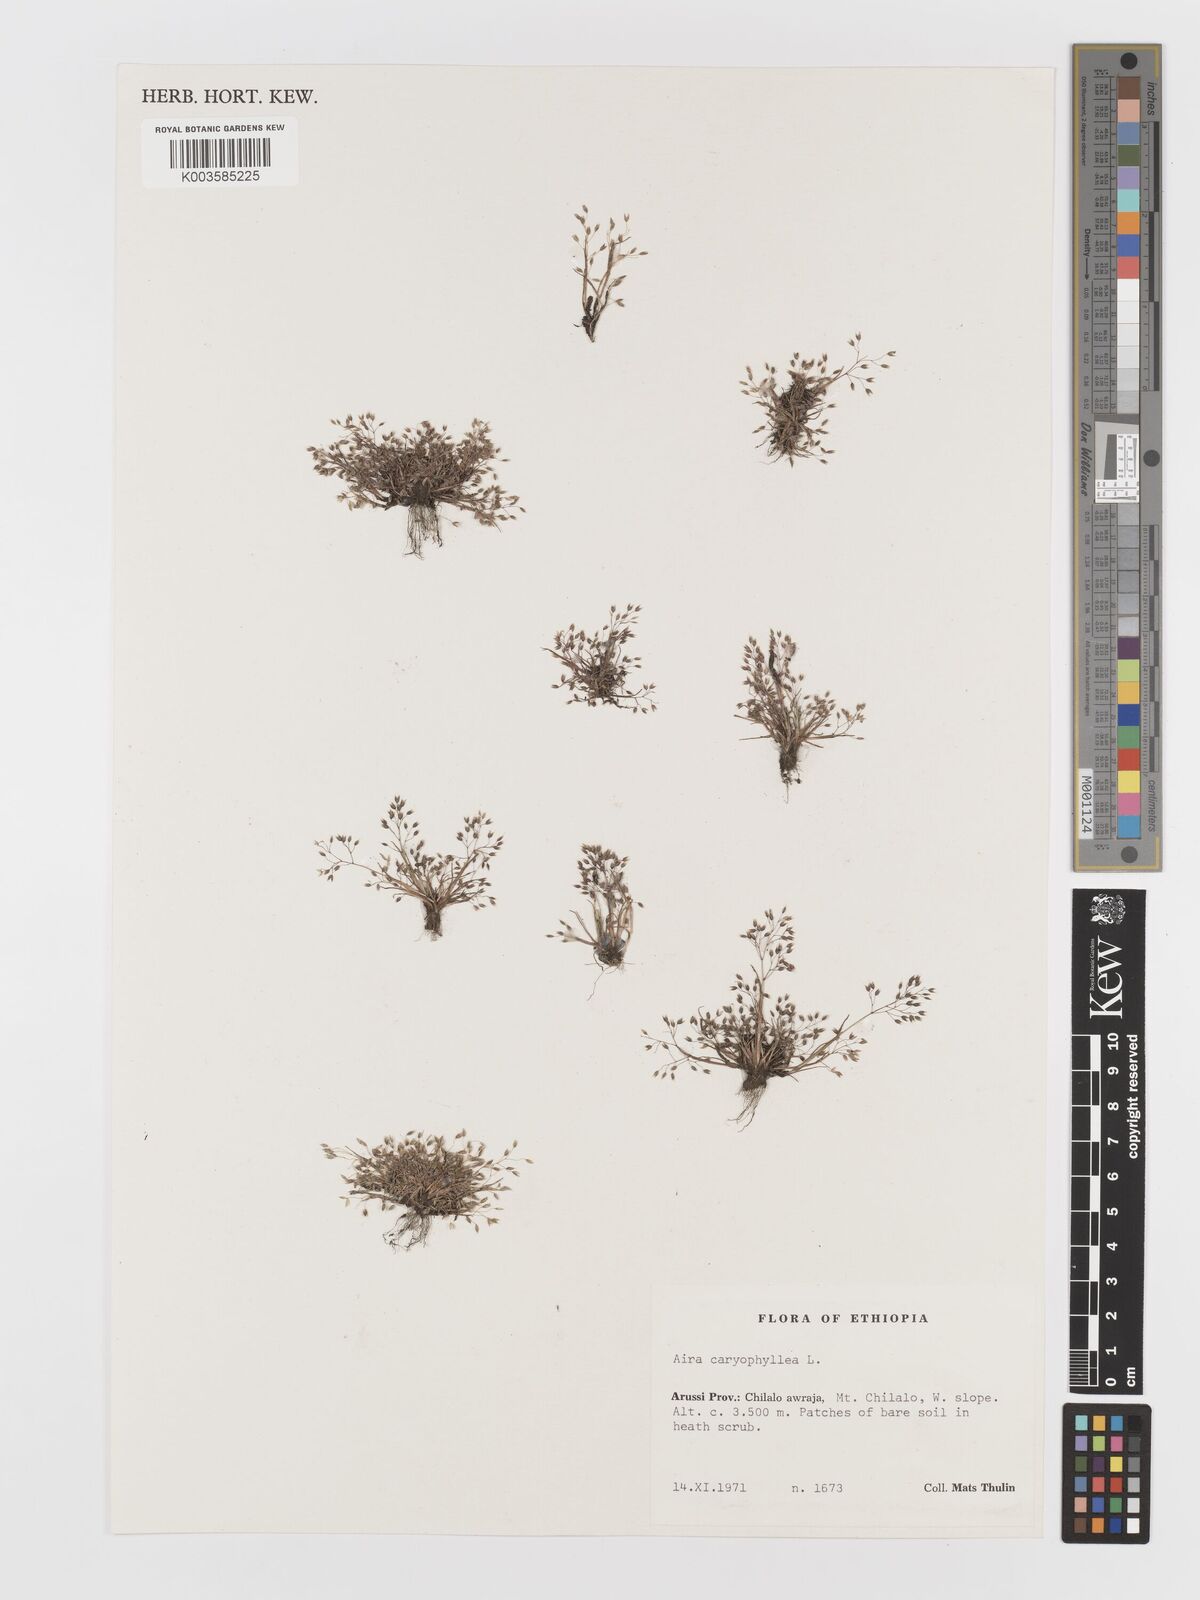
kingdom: Plantae
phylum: Tracheophyta
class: Liliopsida
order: Poales
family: Poaceae
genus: Aira
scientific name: Aira caryophyllea
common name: Silver hairgrass
